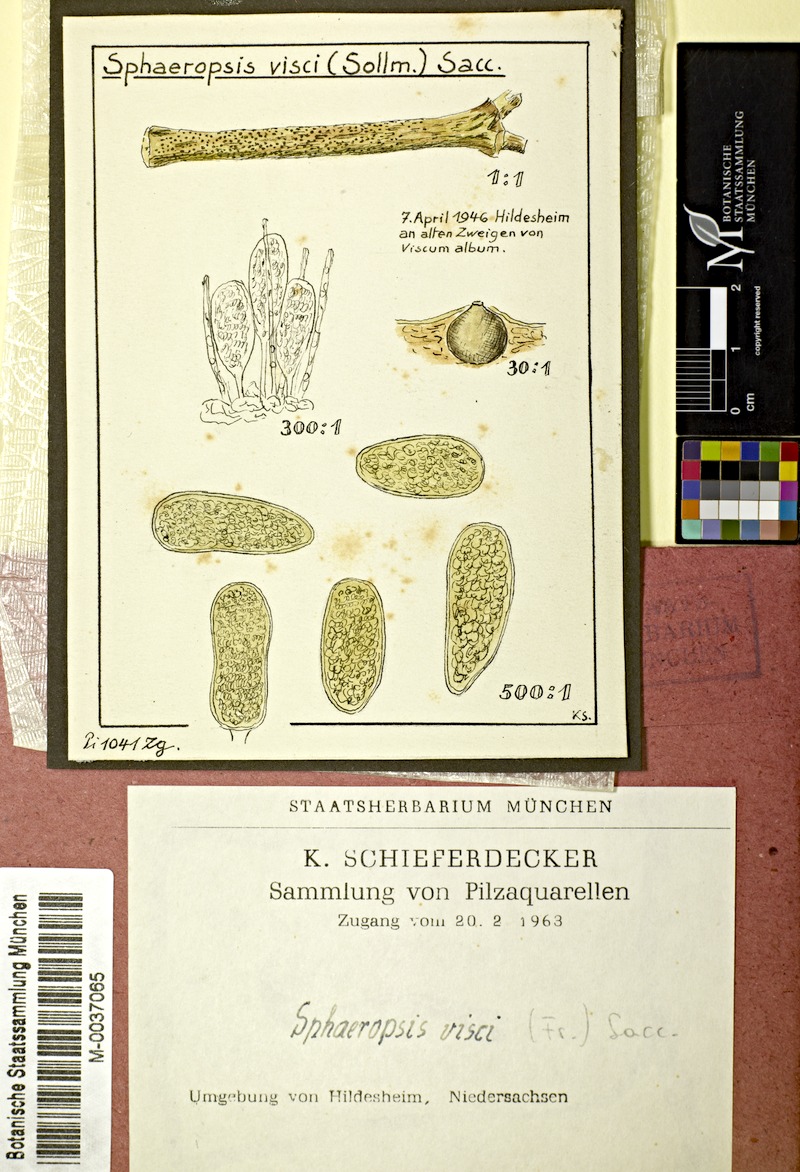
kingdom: Fungi
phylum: Ascomycota
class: Dothideomycetes
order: Botryosphaeriales
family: Botryosphaeriaceae
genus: Botryosphaeria
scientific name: Botryosphaeria visci
